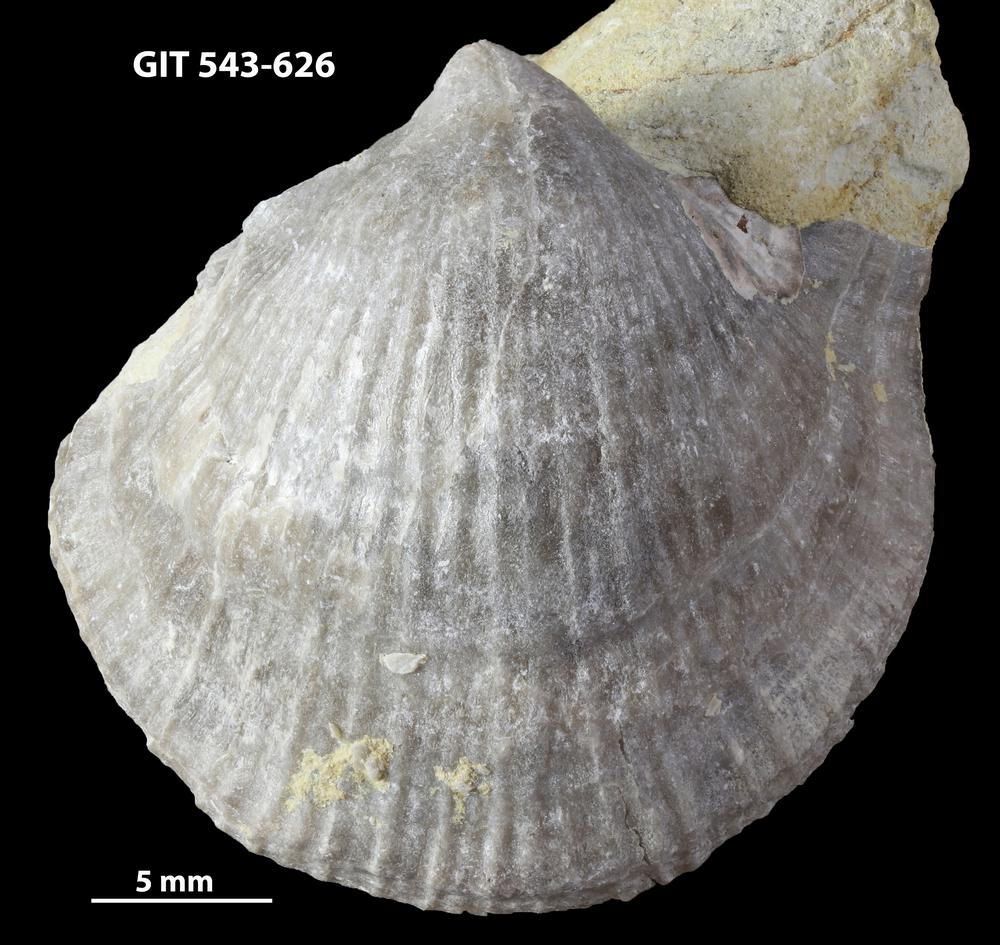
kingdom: Animalia
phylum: Brachiopoda
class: Rhynchonellata
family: Clitambonitidae
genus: Vellamo
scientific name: Vellamo Orthis verneuili
